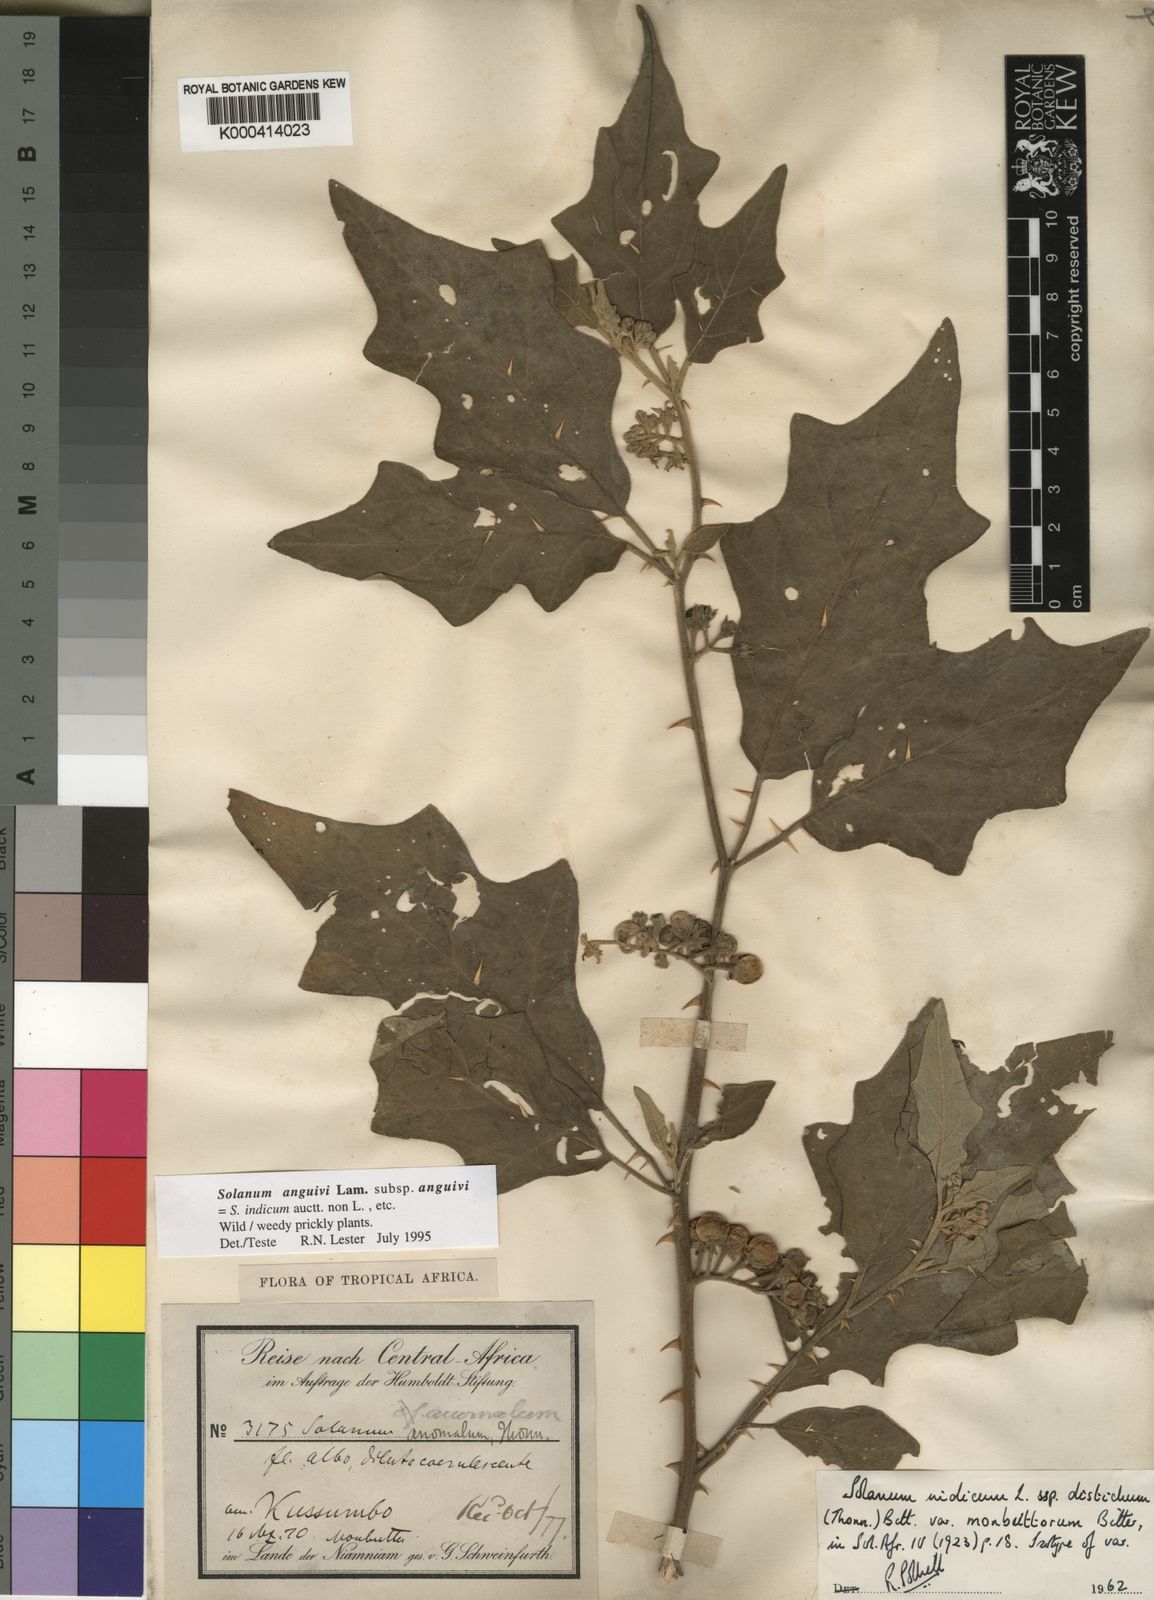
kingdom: Plantae
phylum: Tracheophyta
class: Magnoliopsida
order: Solanales
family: Solanaceae
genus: Solanum
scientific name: Solanum anguivi
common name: Forest bitterberry
